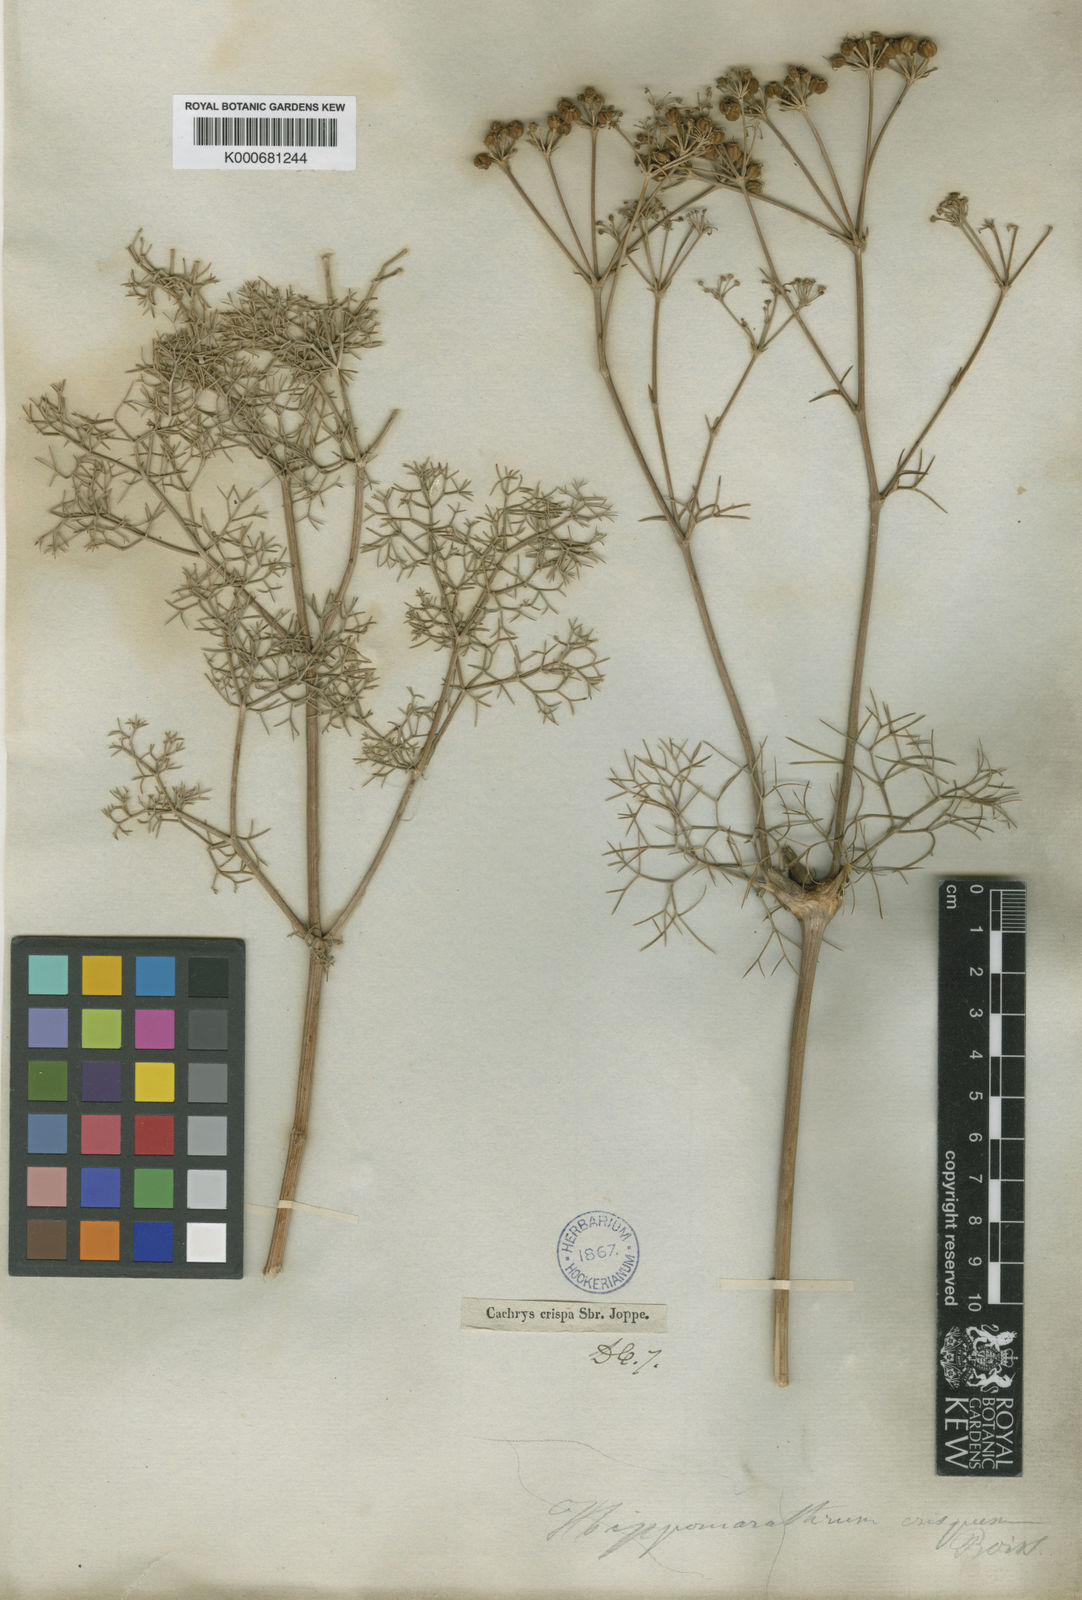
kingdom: Plantae
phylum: Tracheophyta
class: Magnoliopsida
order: Apiales
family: Apiaceae
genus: Bilacunaria
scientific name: Bilacunaria microcarpa
